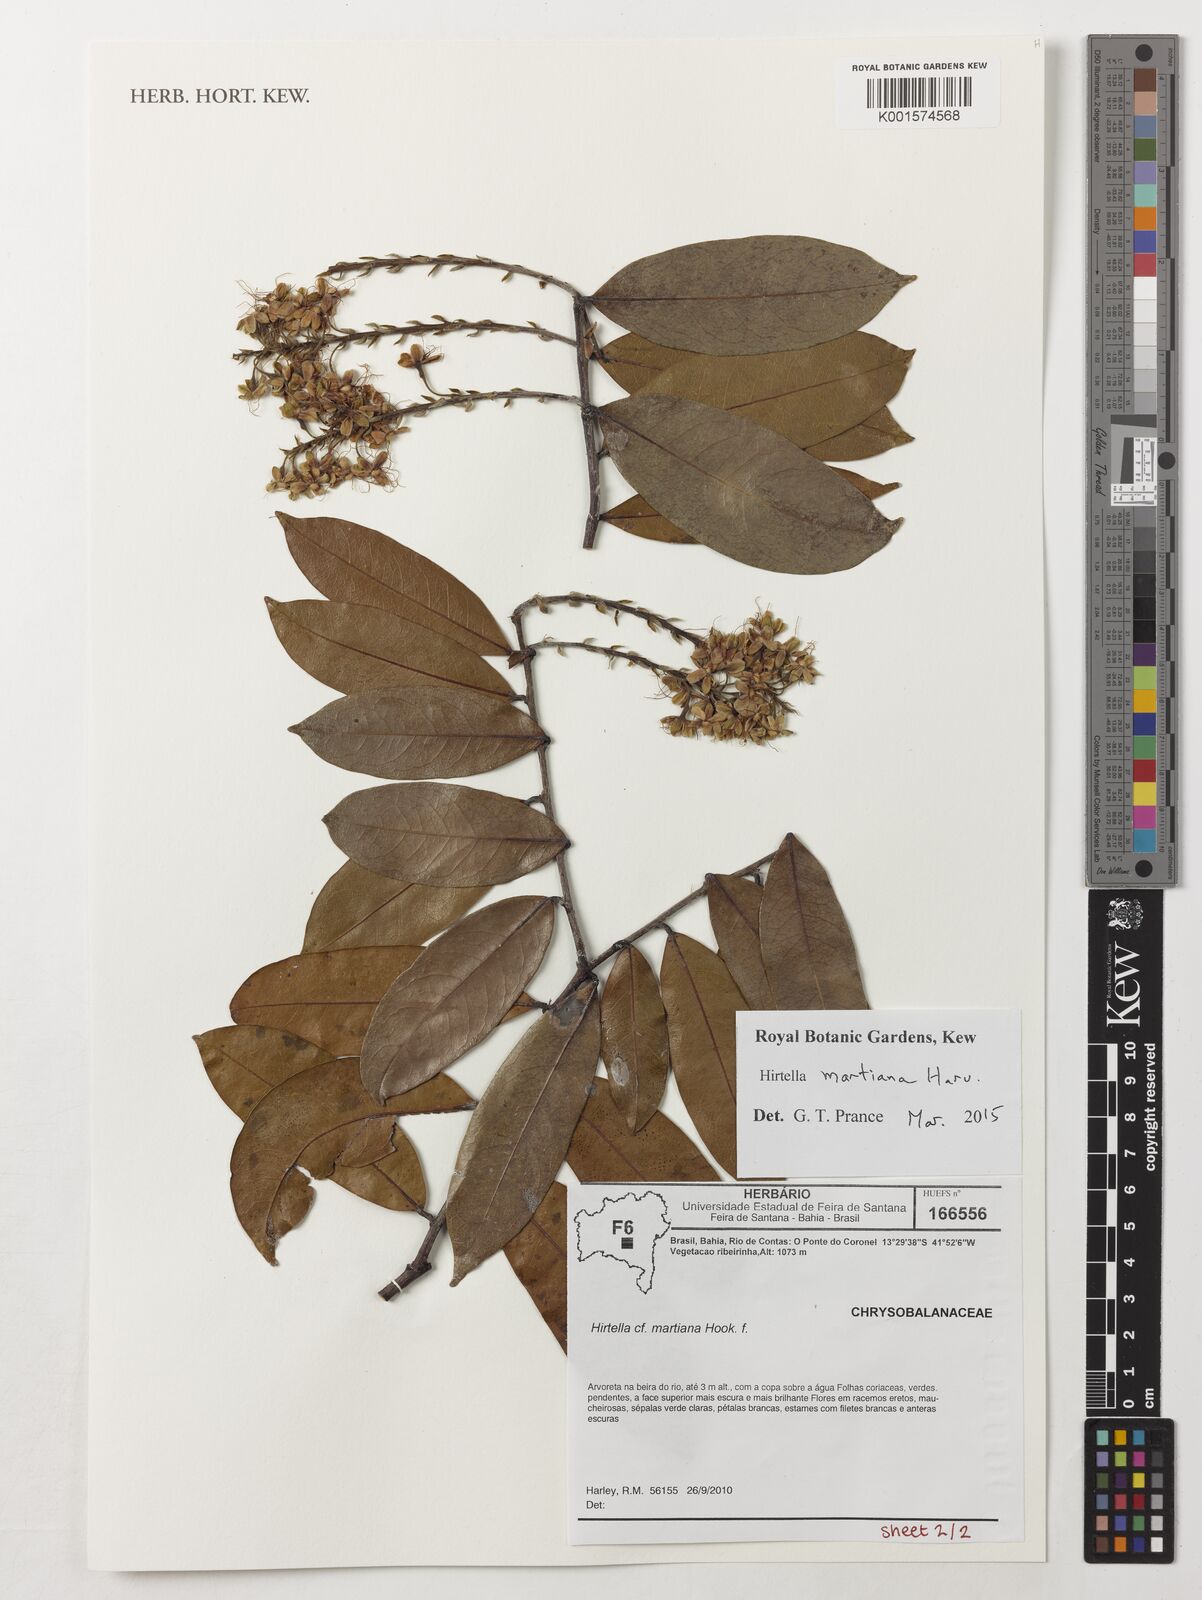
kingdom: Plantae
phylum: Tracheophyta
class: Magnoliopsida
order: Malpighiales
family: Chrysobalanaceae
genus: Hirtella
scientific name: Hirtella martiana
